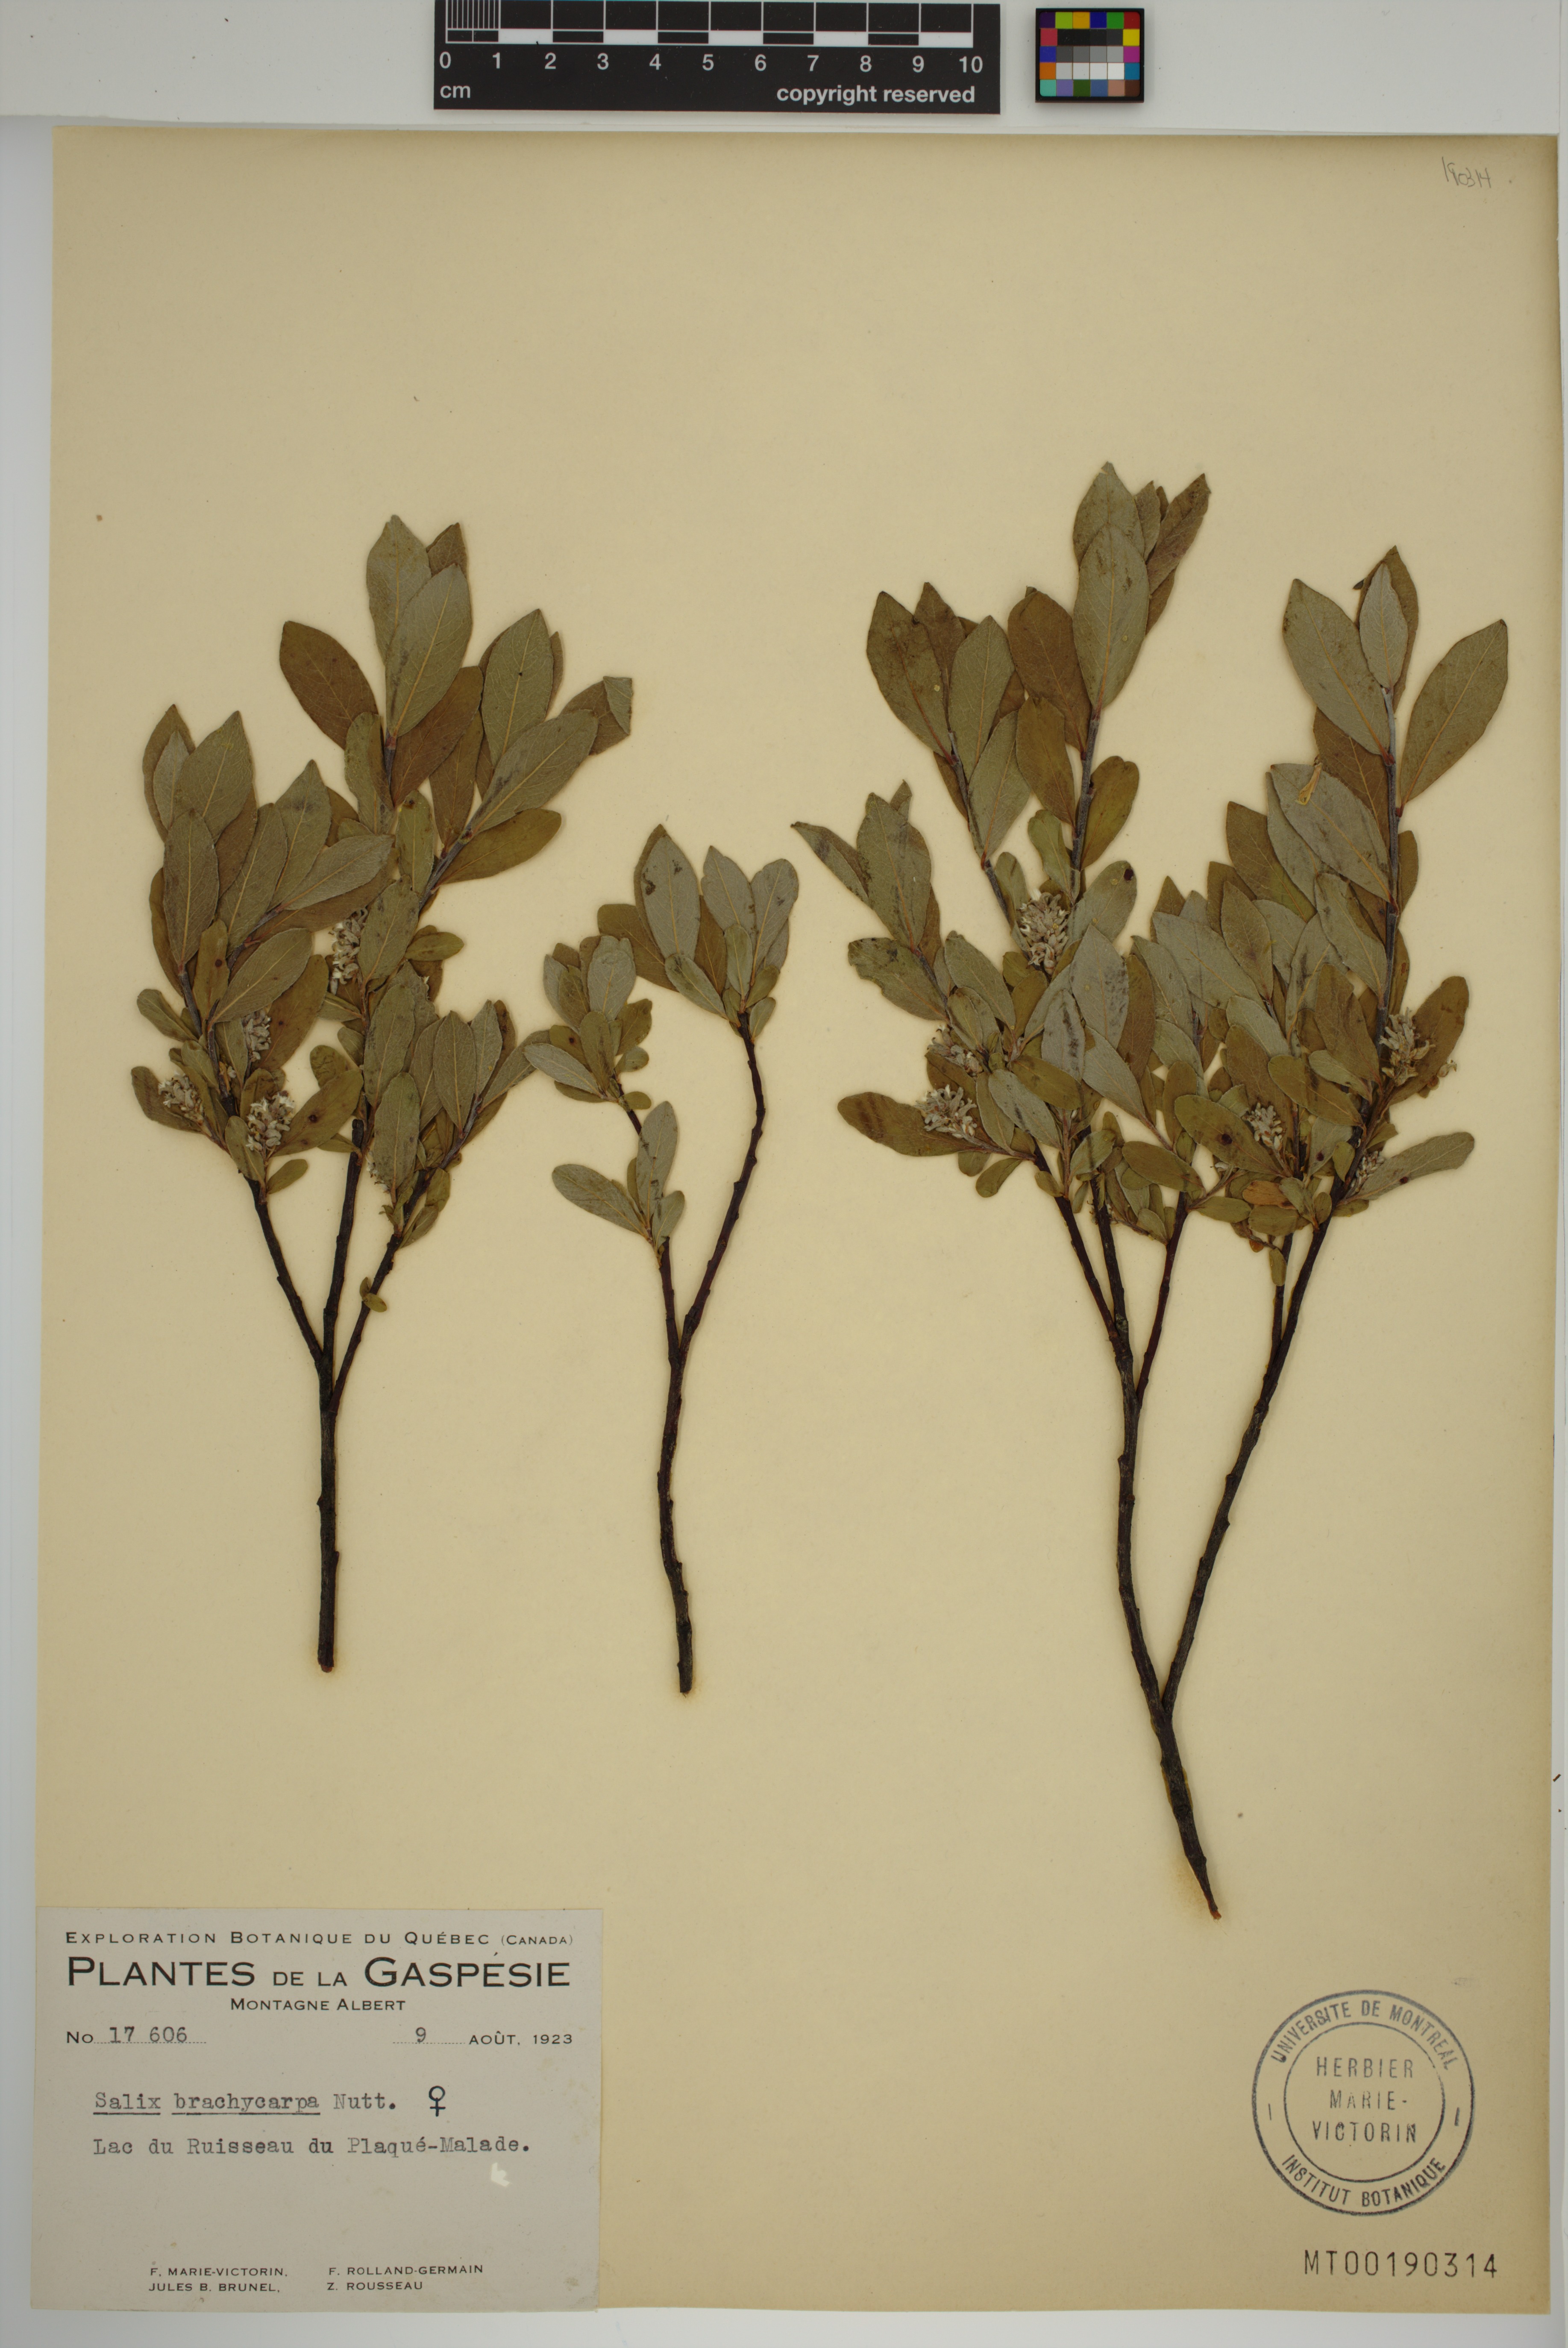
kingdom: Plantae
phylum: Tracheophyta
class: Magnoliopsida
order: Malpighiales
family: Salicaceae
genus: Salix
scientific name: Salix brachycarpa
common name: Barren-ground willow
